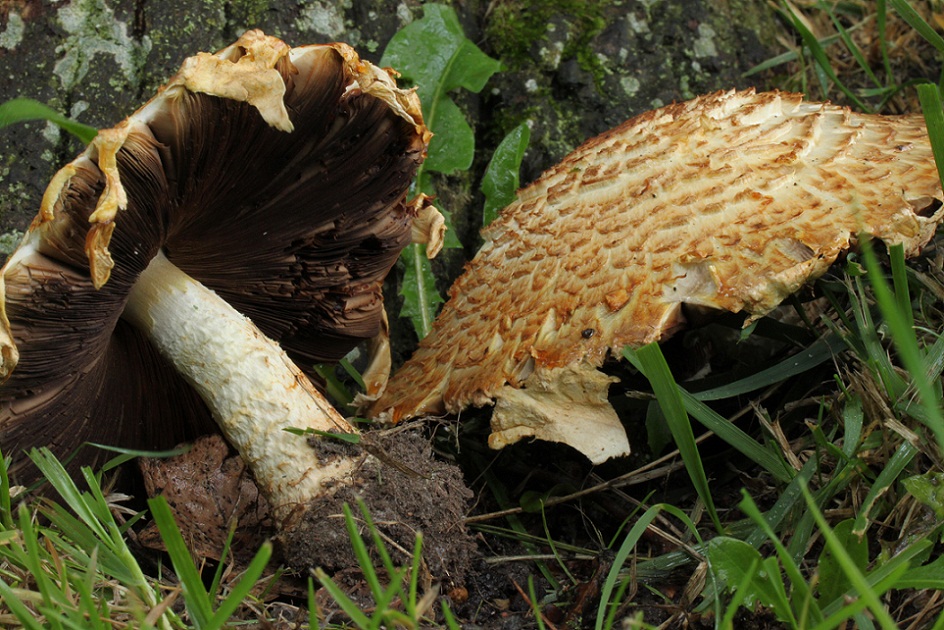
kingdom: Fungi
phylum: Basidiomycota
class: Agaricomycetes
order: Agaricales
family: Agaricaceae
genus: Agaricus
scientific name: Agaricus augustus
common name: prægtig champignon
